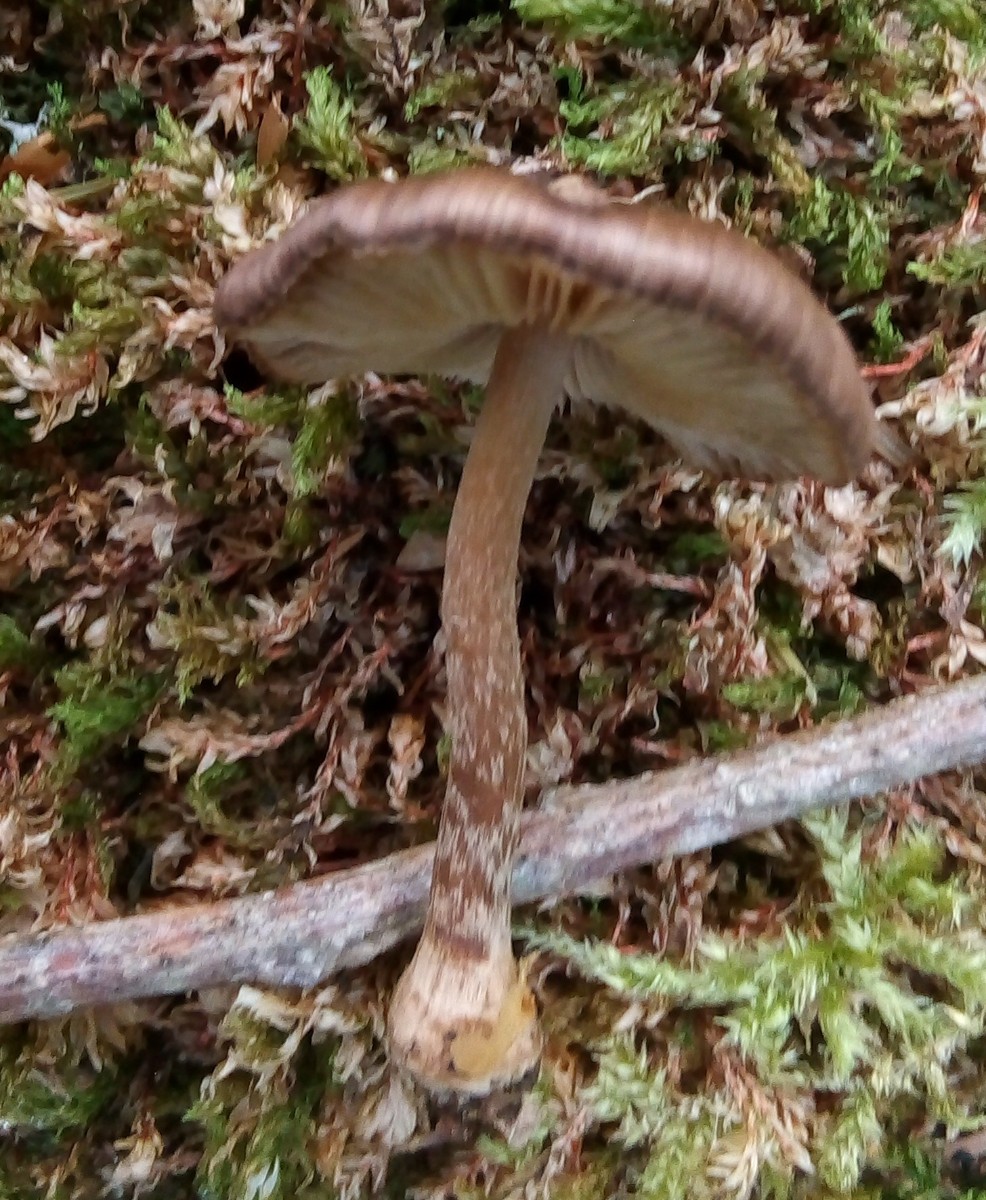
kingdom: Fungi
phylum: Basidiomycota
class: Agaricomycetes
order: Agaricales
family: Inocybaceae
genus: Inocybe
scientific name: Inocybe napipes
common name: roeknoldet trævlhat
